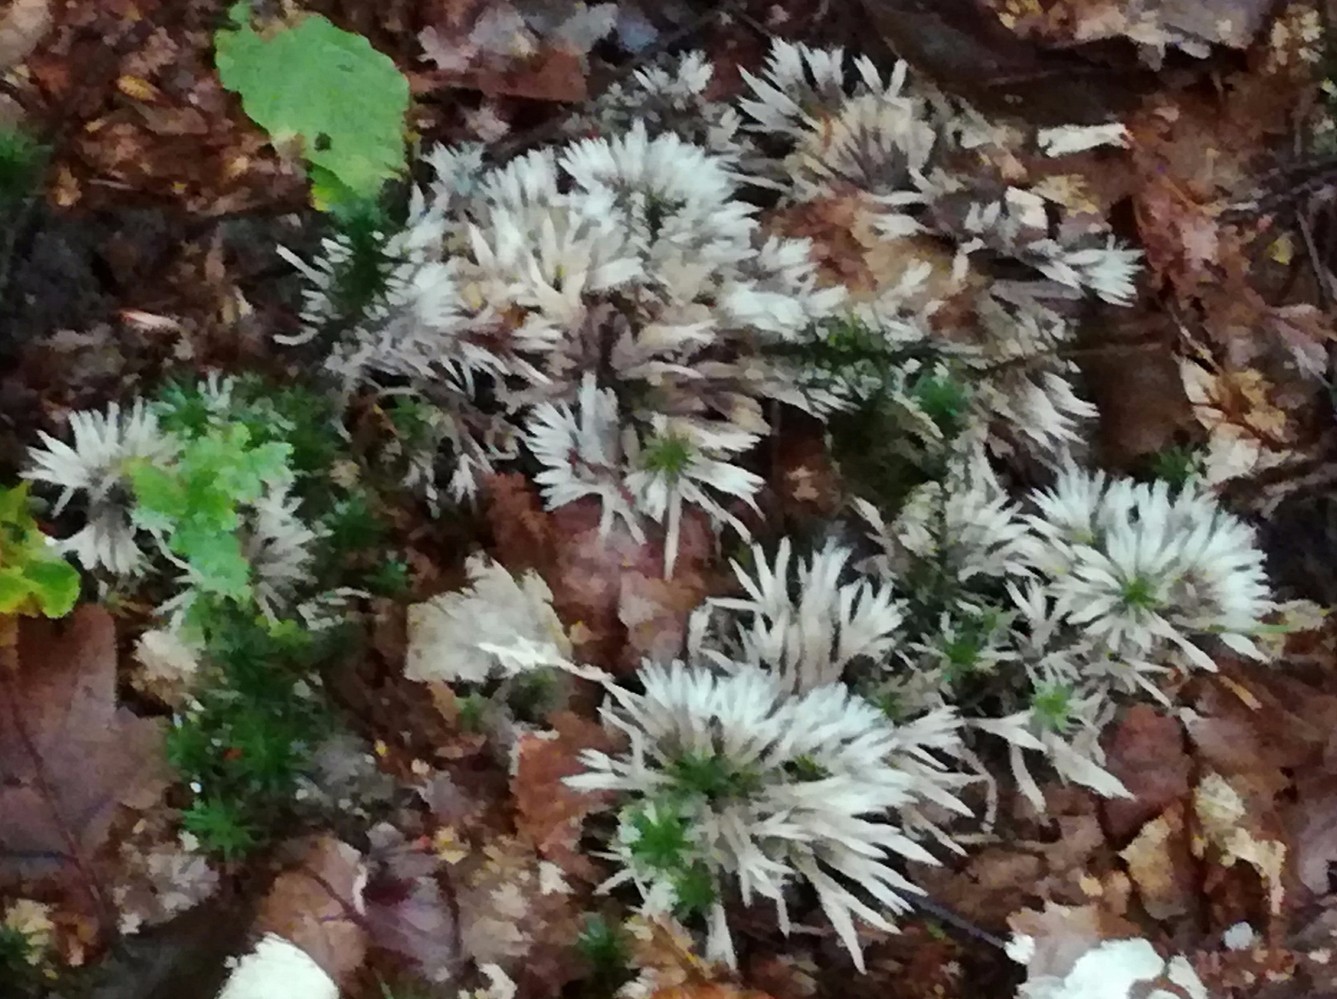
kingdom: Fungi
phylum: Basidiomycota
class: Agaricomycetes
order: Thelephorales
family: Thelephoraceae
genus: Thelephora
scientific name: Thelephora penicillata
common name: fladtrådt frynsesvamp
